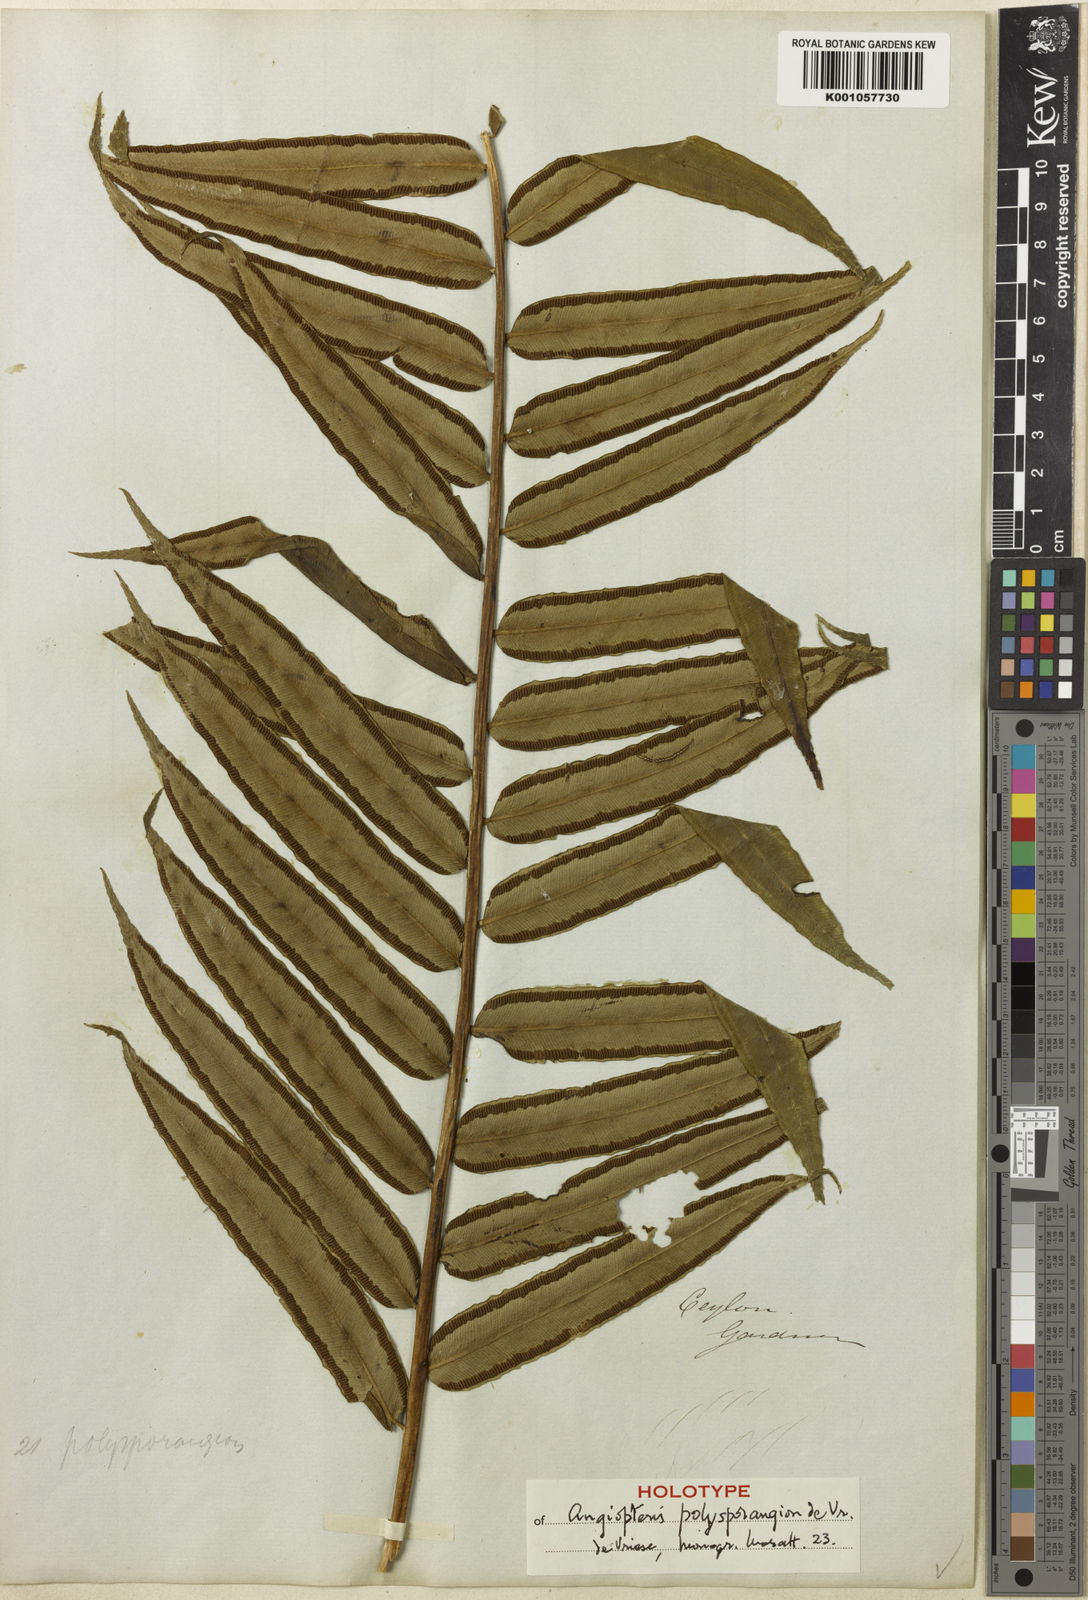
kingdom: Plantae
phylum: Tracheophyta
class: Polypodiopsida
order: Marattiales
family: Marattiaceae
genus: Angiopteris
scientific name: Angiopteris helferiana
